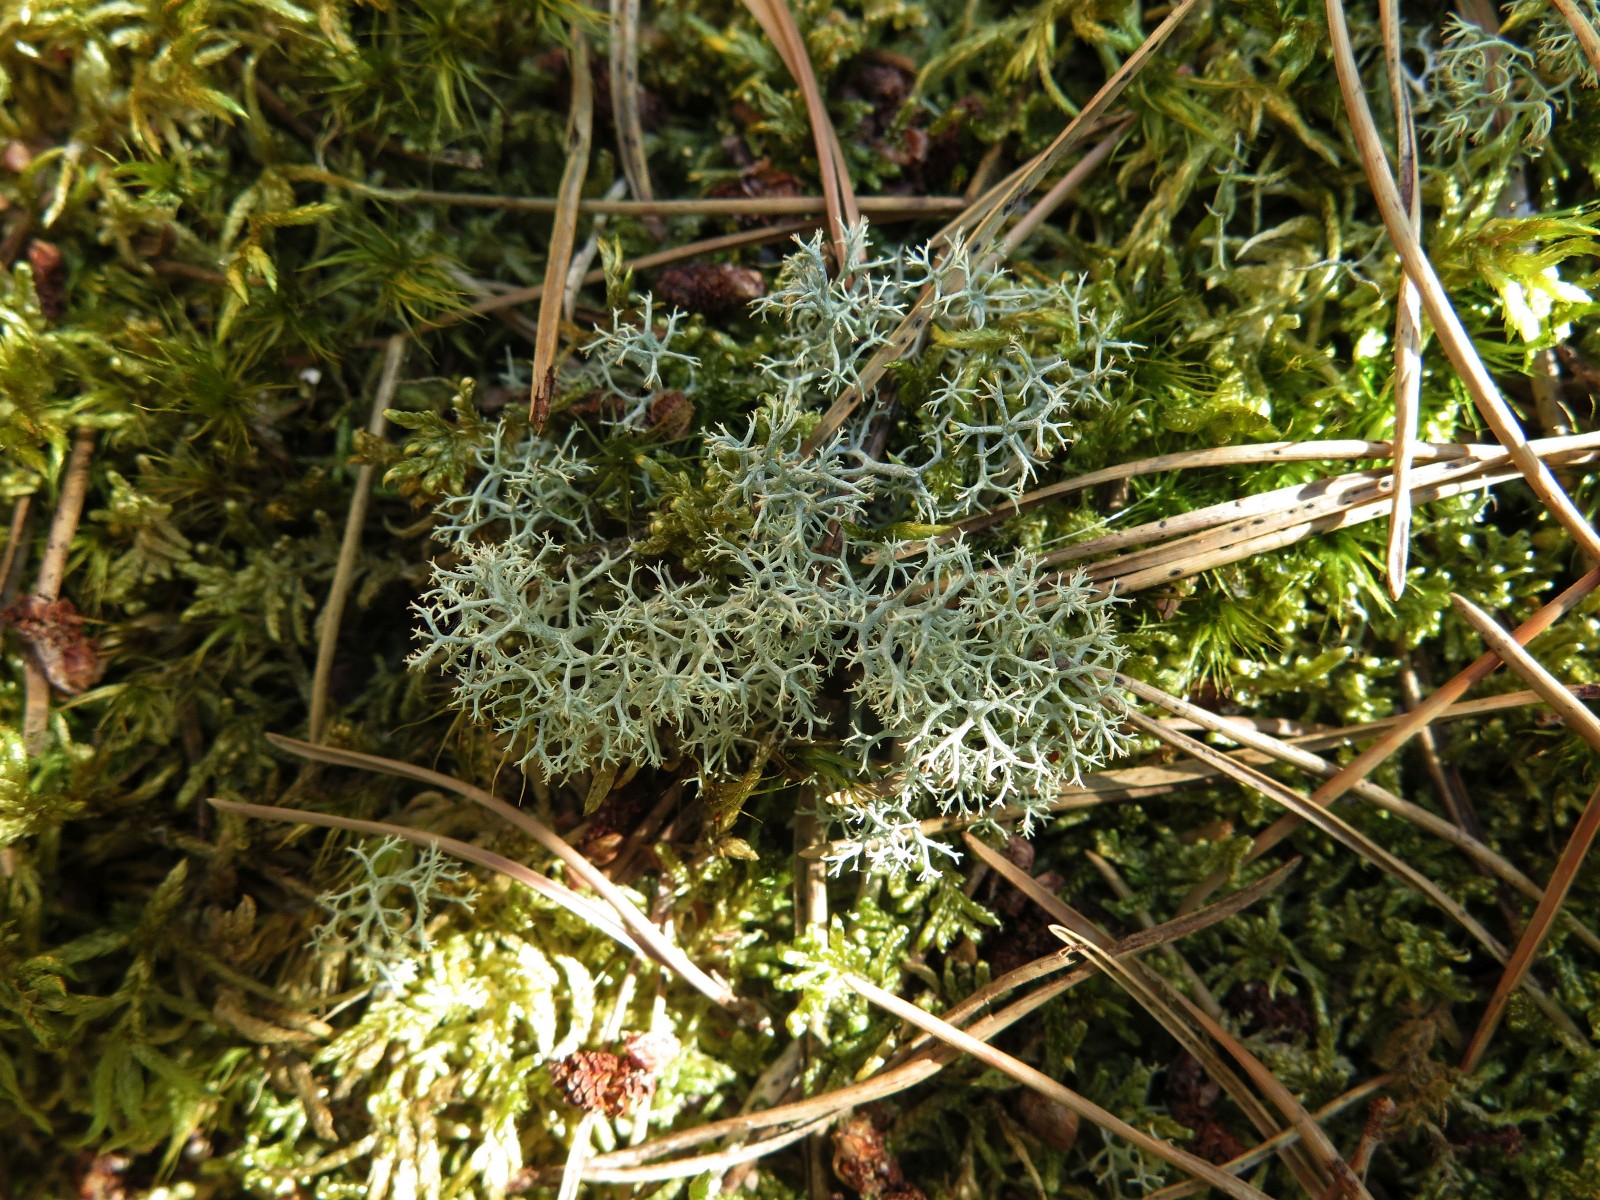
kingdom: Fungi
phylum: Ascomycota
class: Lecanoromycetes
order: Lecanorales
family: Cladoniaceae
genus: Cladonia
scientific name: Cladonia portentosa
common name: hede-rensdyrlav
